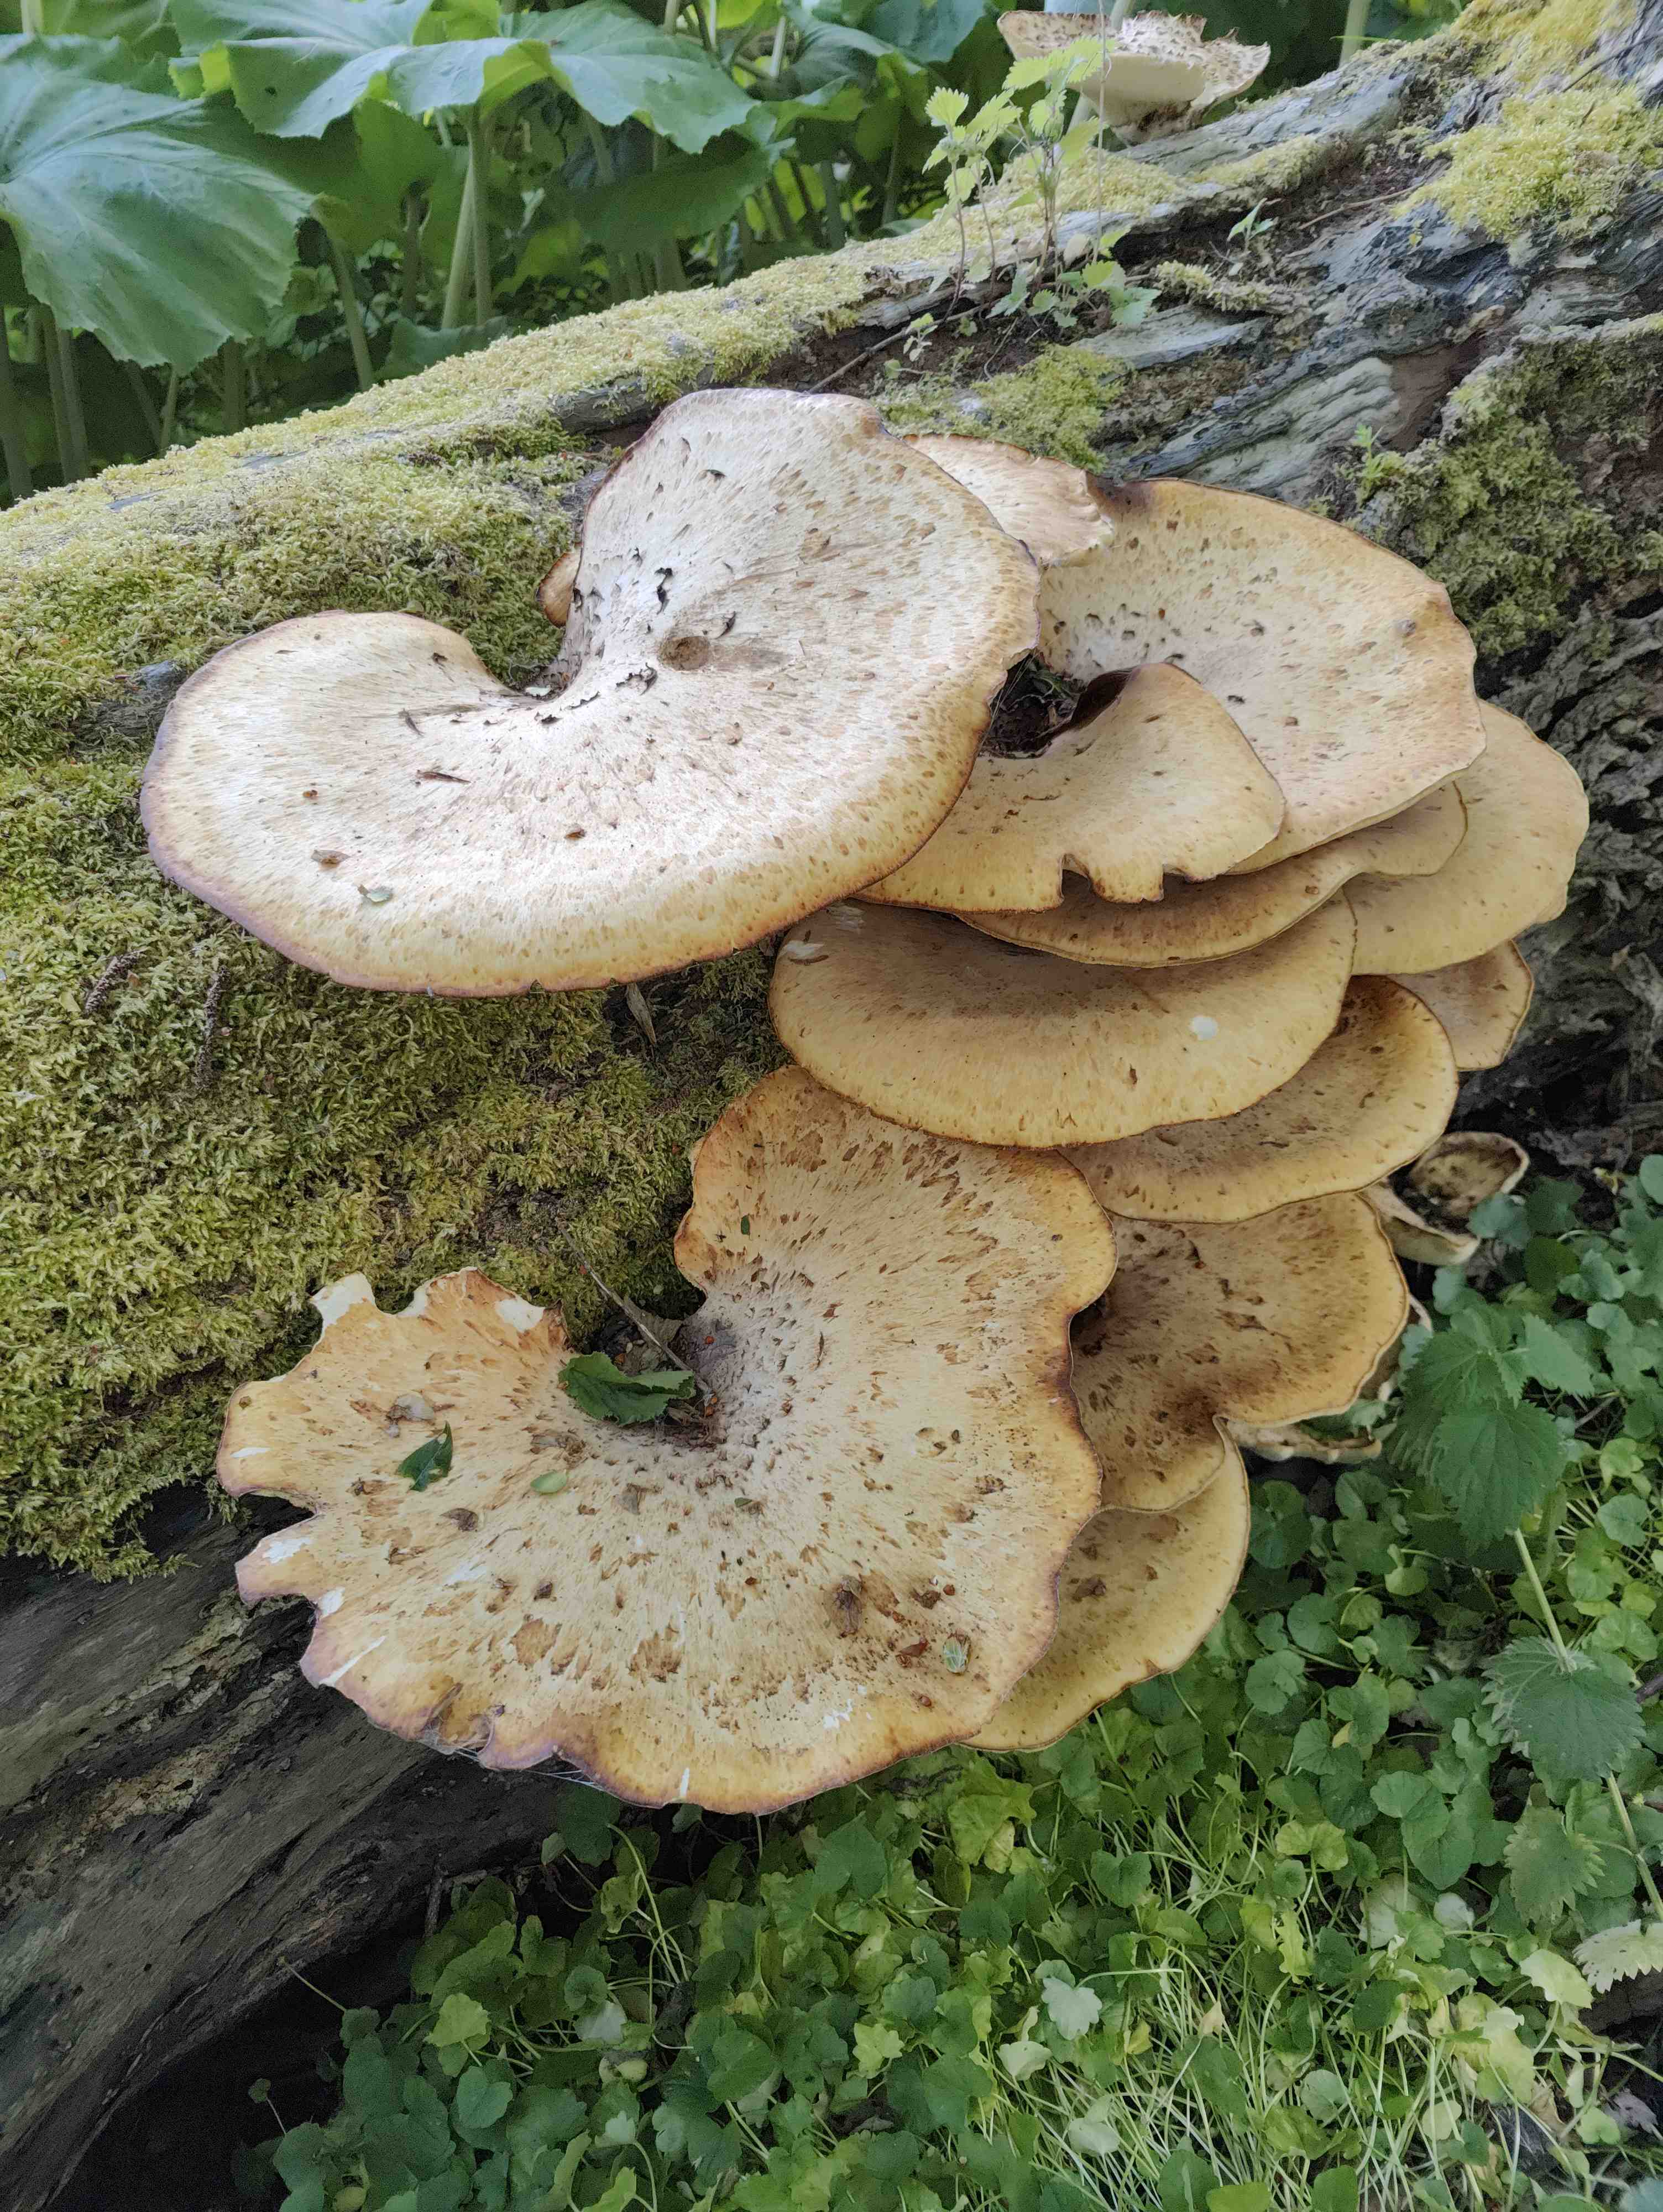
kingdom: Fungi
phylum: Basidiomycota
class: Agaricomycetes
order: Polyporales
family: Polyporaceae
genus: Cerioporus
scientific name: Cerioporus squamosus
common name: skællet stilkporesvamp
